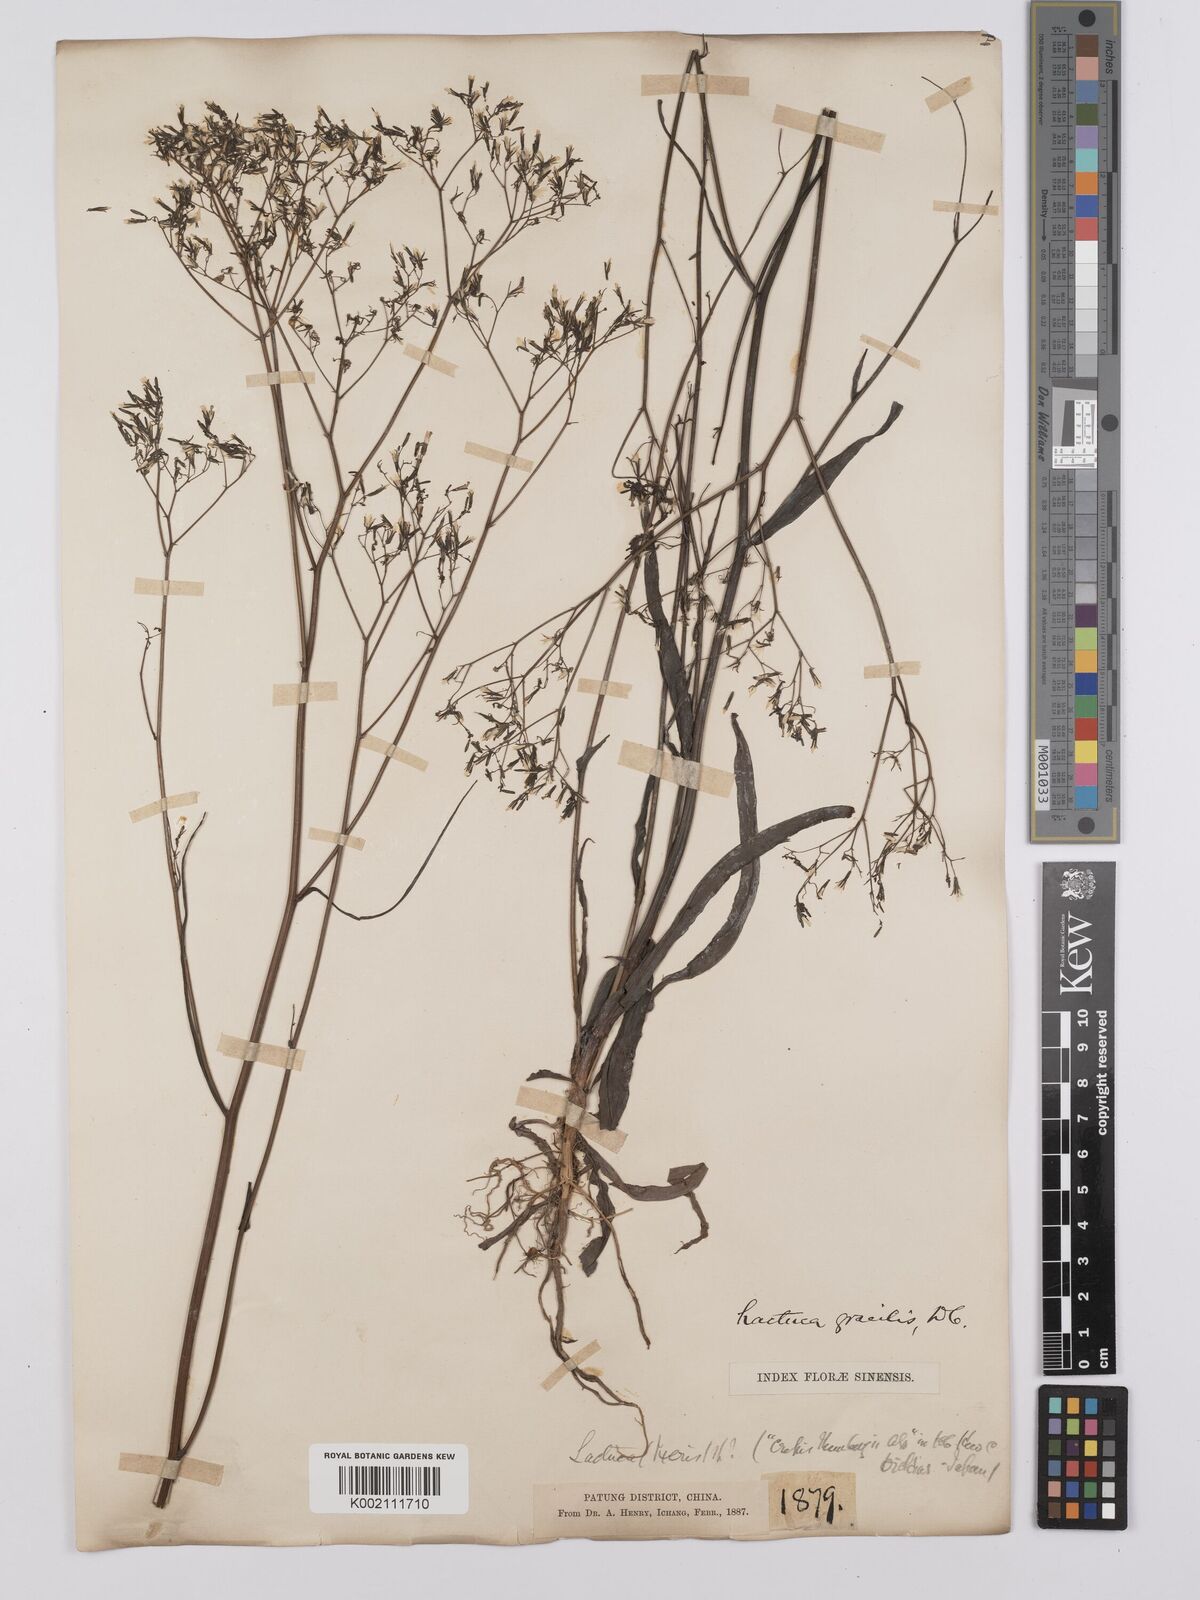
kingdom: Plantae
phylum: Tracheophyta
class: Magnoliopsida
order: Asterales
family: Asteraceae
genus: Ixeridium
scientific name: Ixeridium gracile
